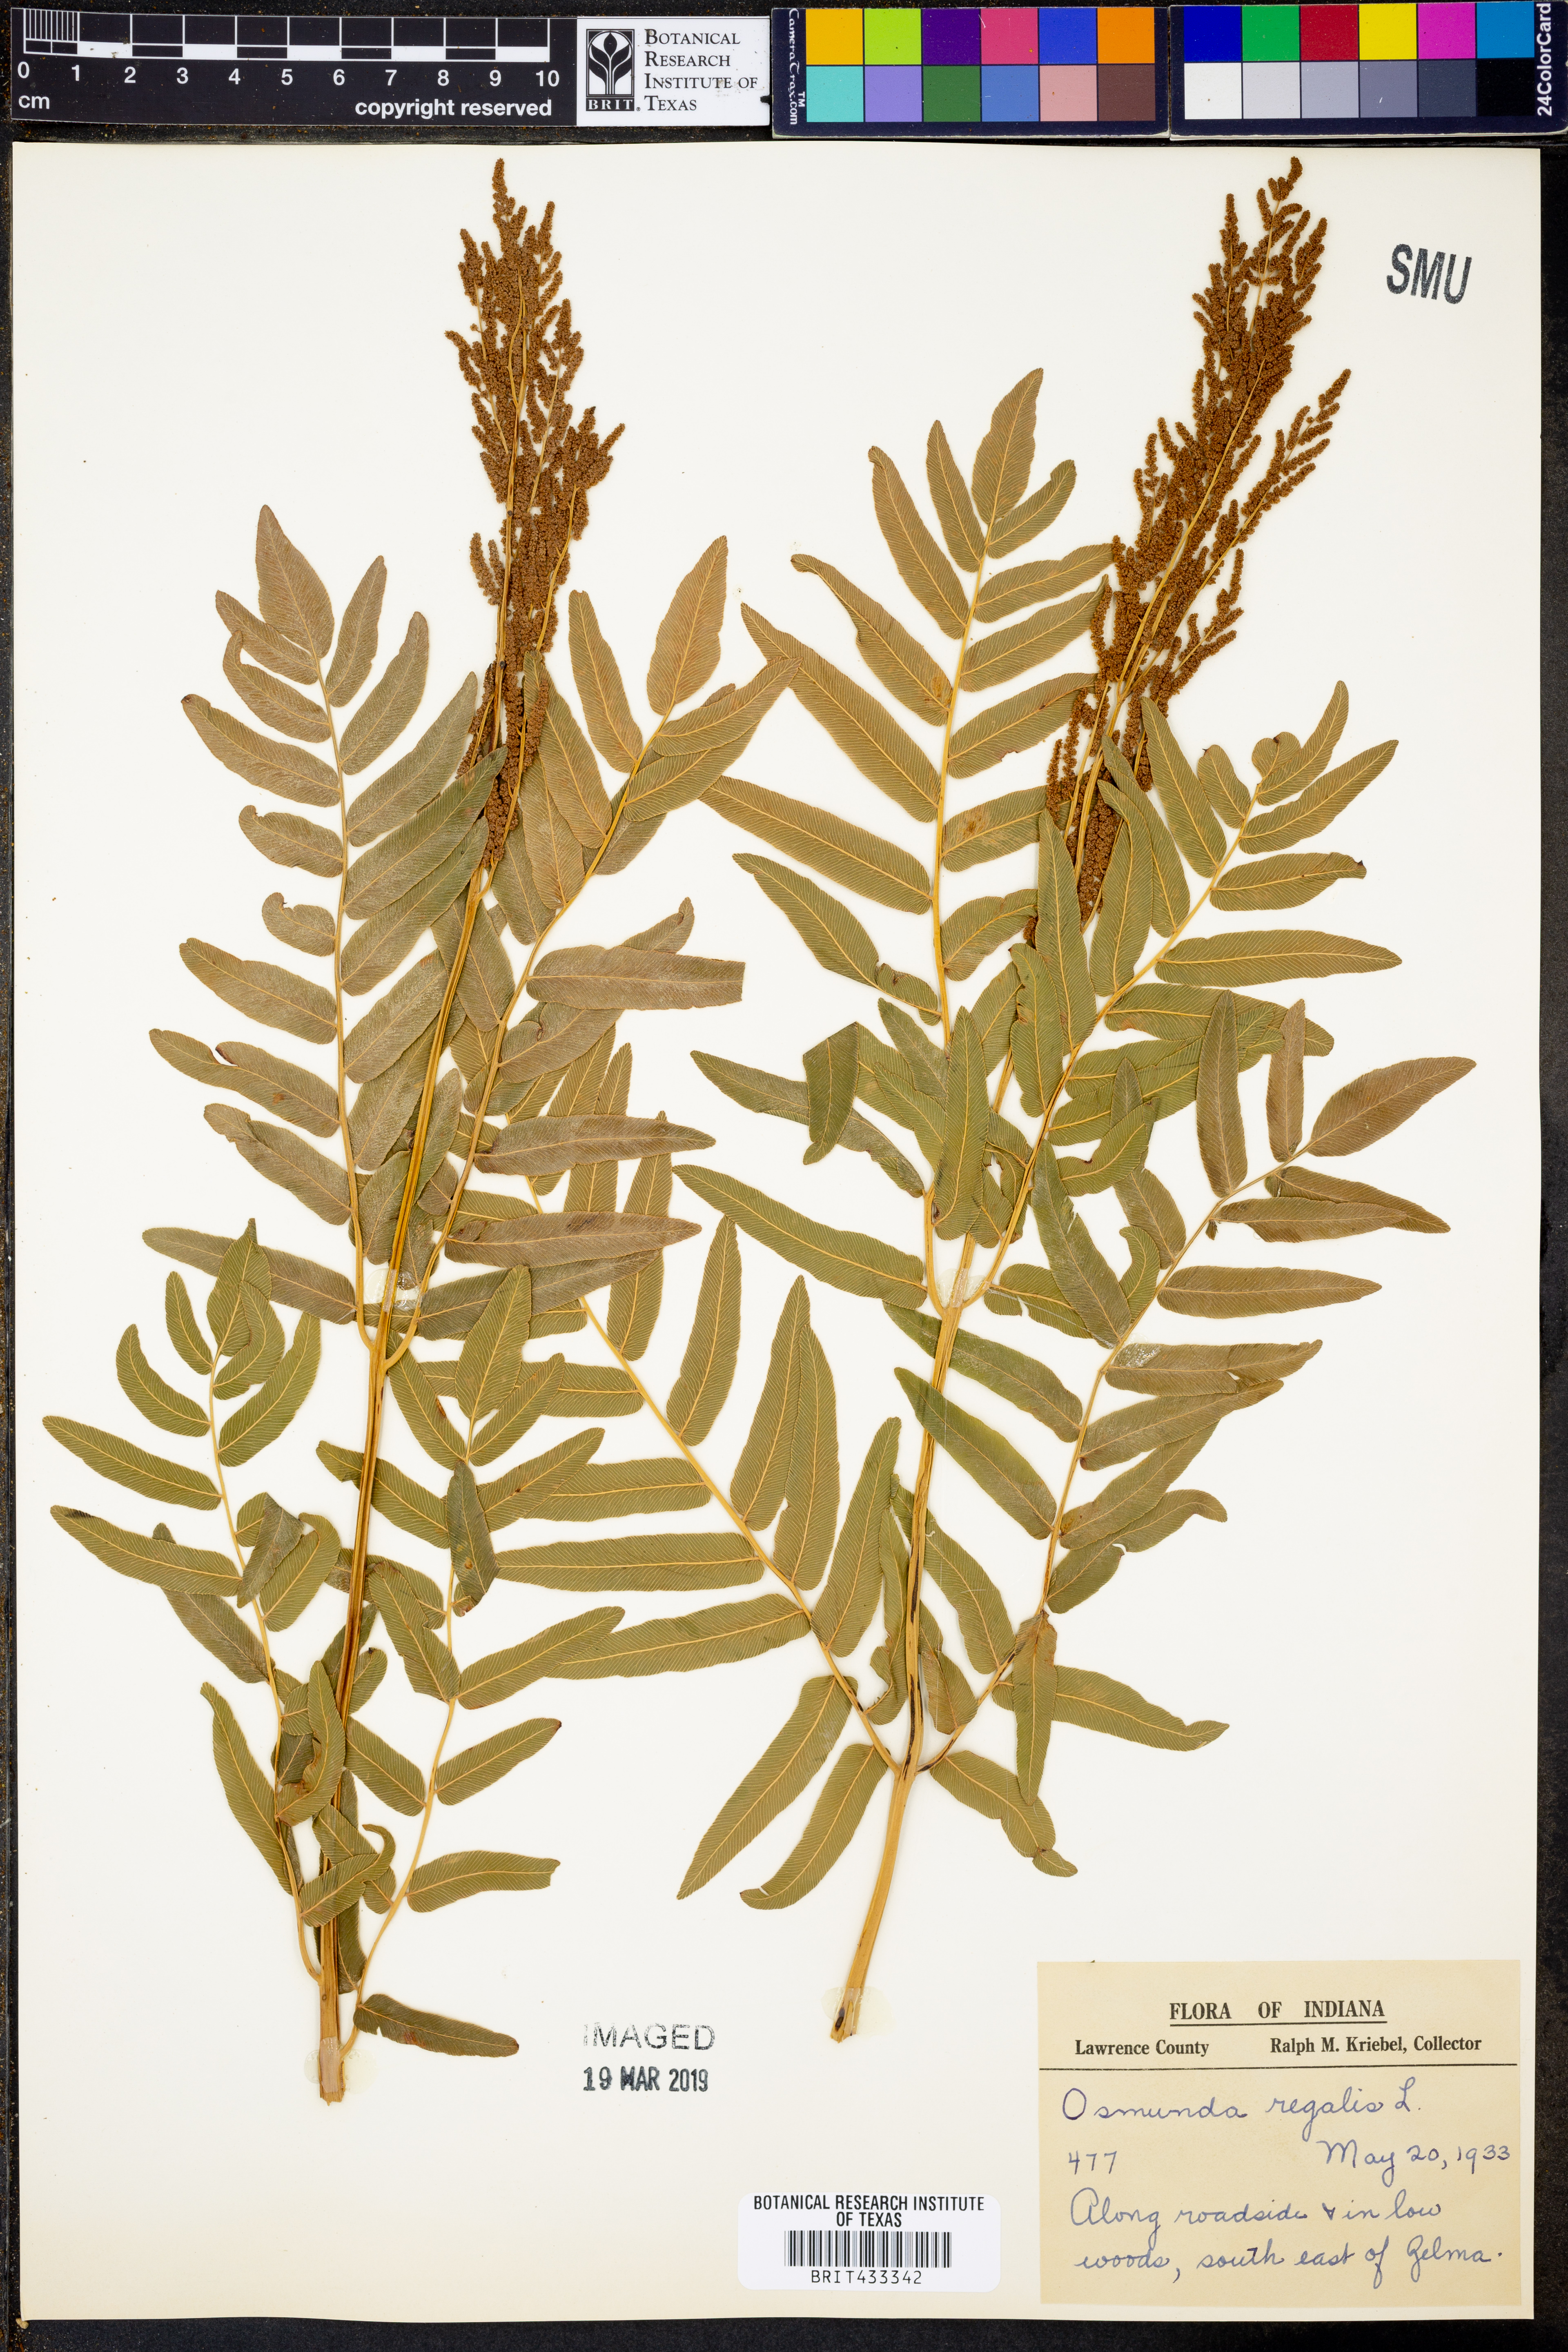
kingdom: Plantae
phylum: Tracheophyta
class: Polypodiopsida
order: Osmundales
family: Osmundaceae
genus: Osmunda
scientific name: Osmunda regalis
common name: Royal fern
